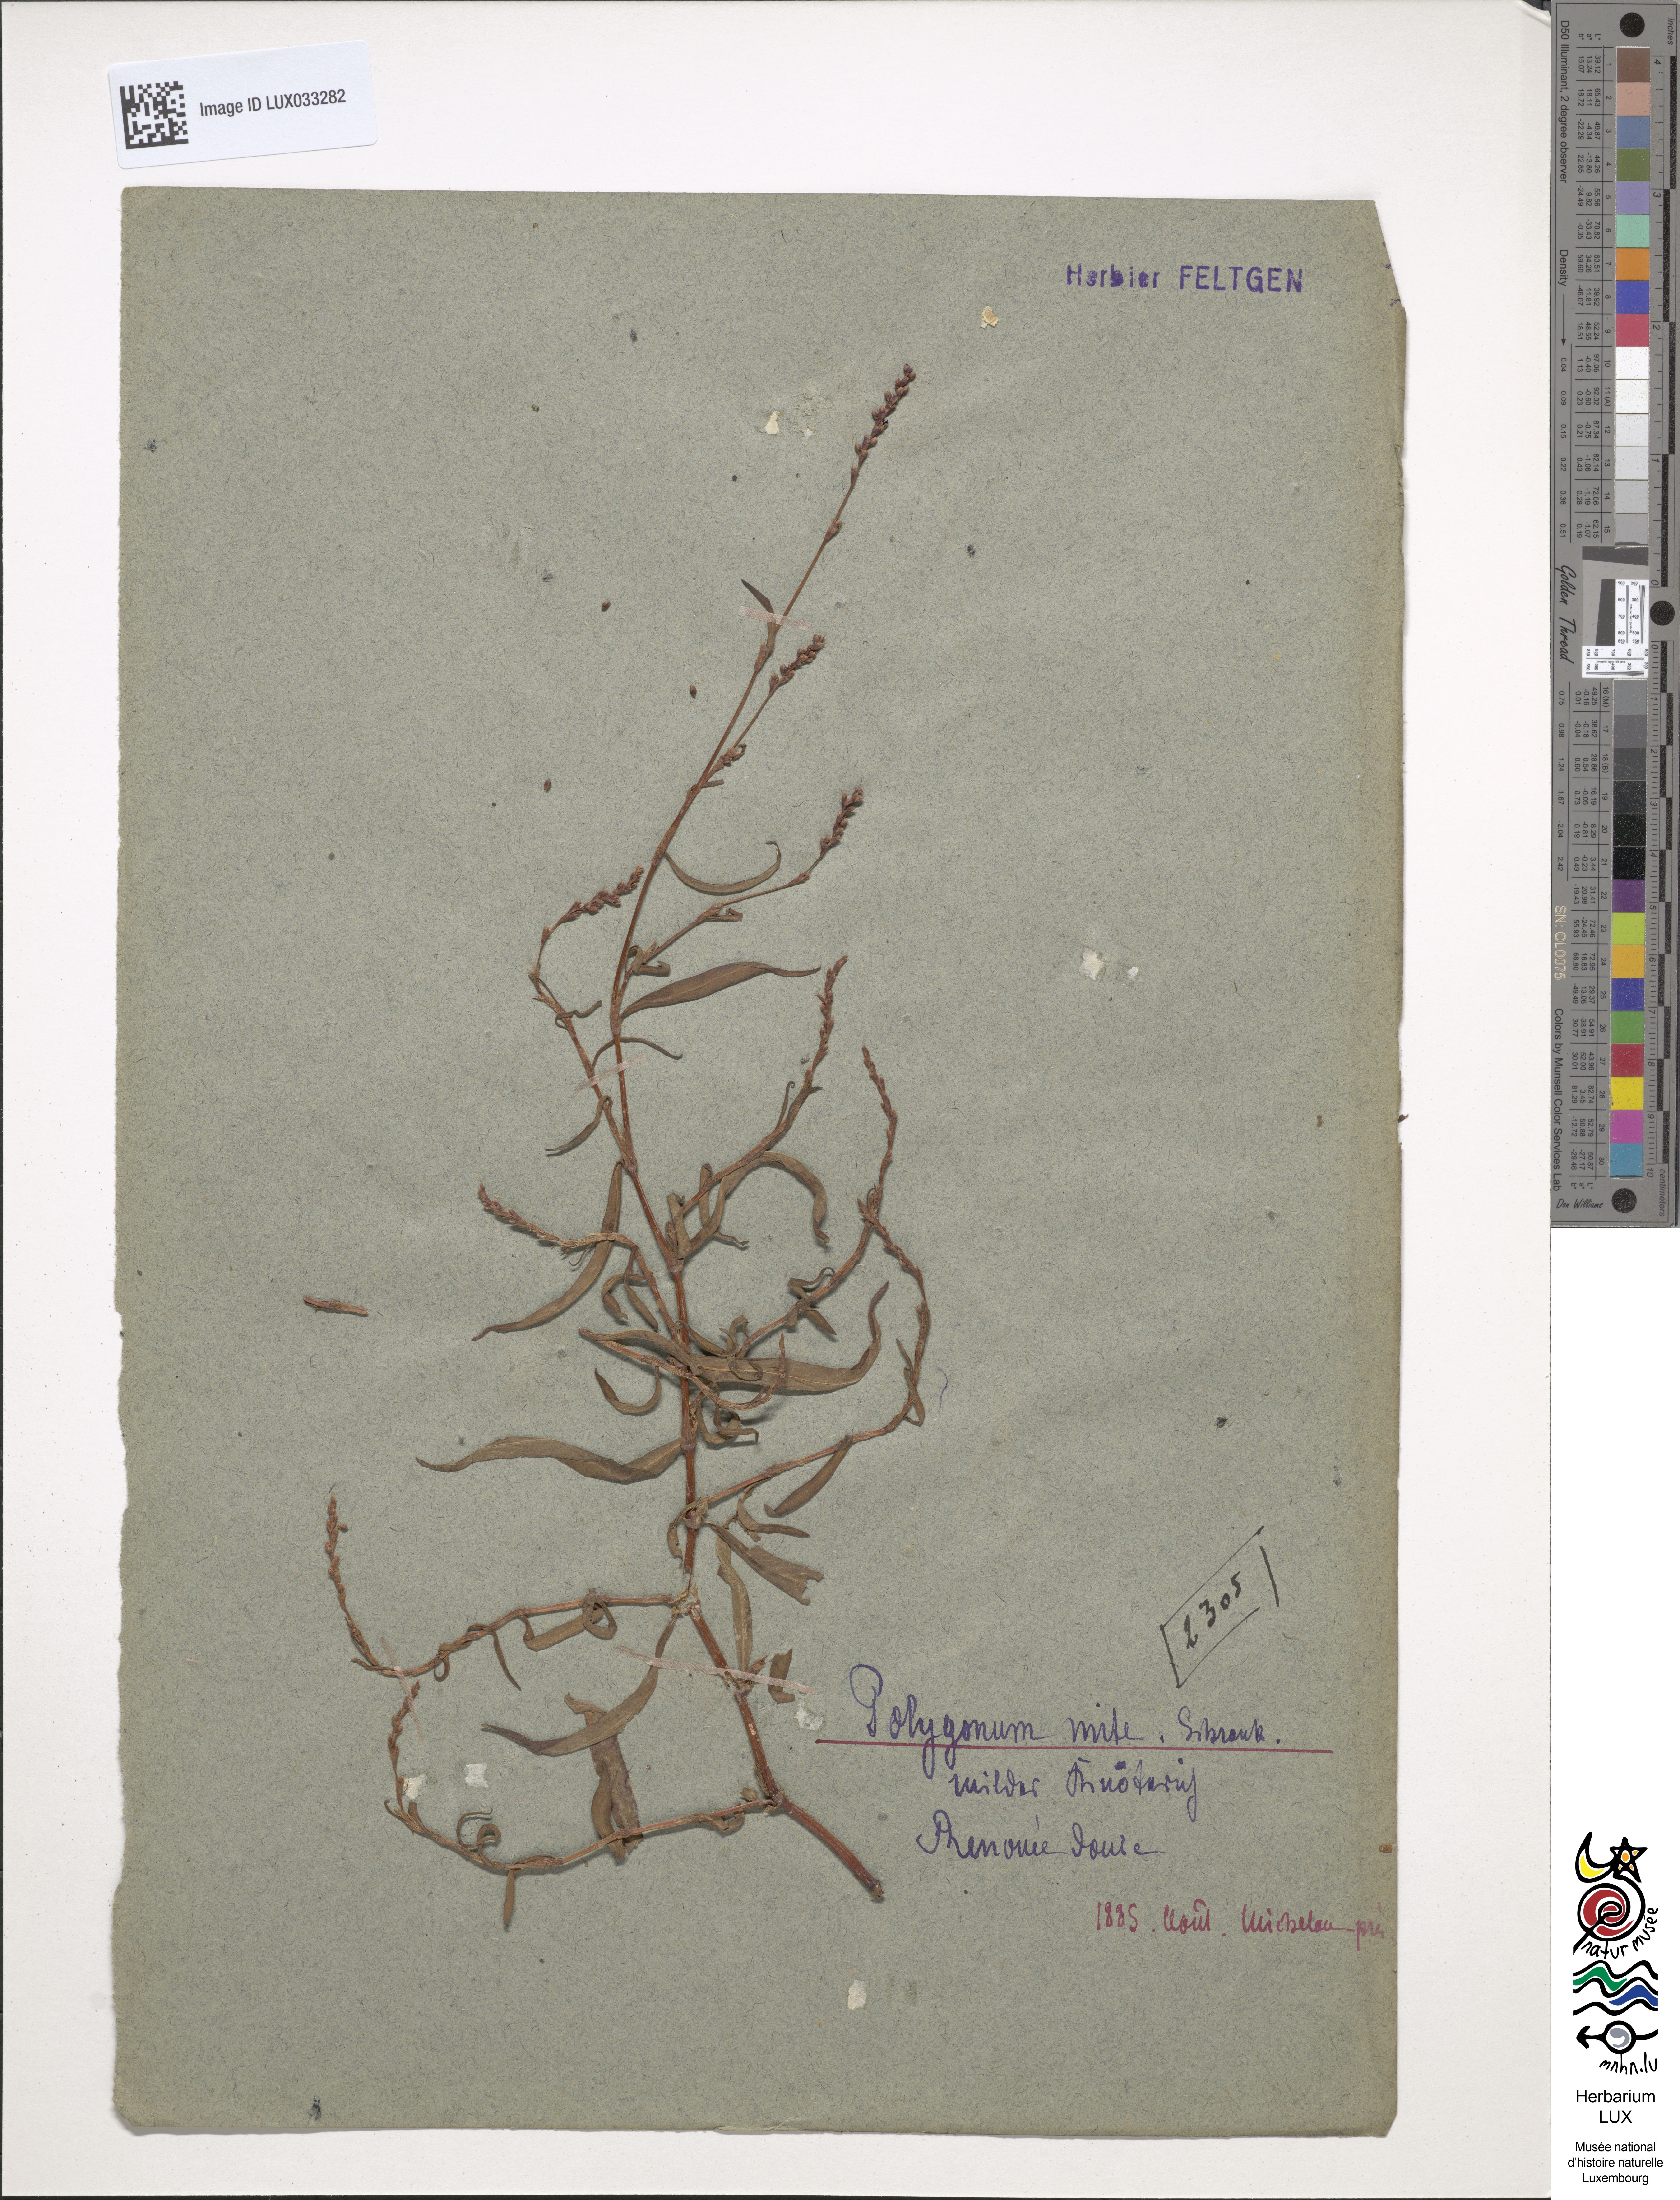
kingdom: Plantae
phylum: Tracheophyta
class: Magnoliopsida
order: Caryophyllales
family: Polygonaceae
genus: Persicaria
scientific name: Persicaria mitis
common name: Tasteless water-pepper
